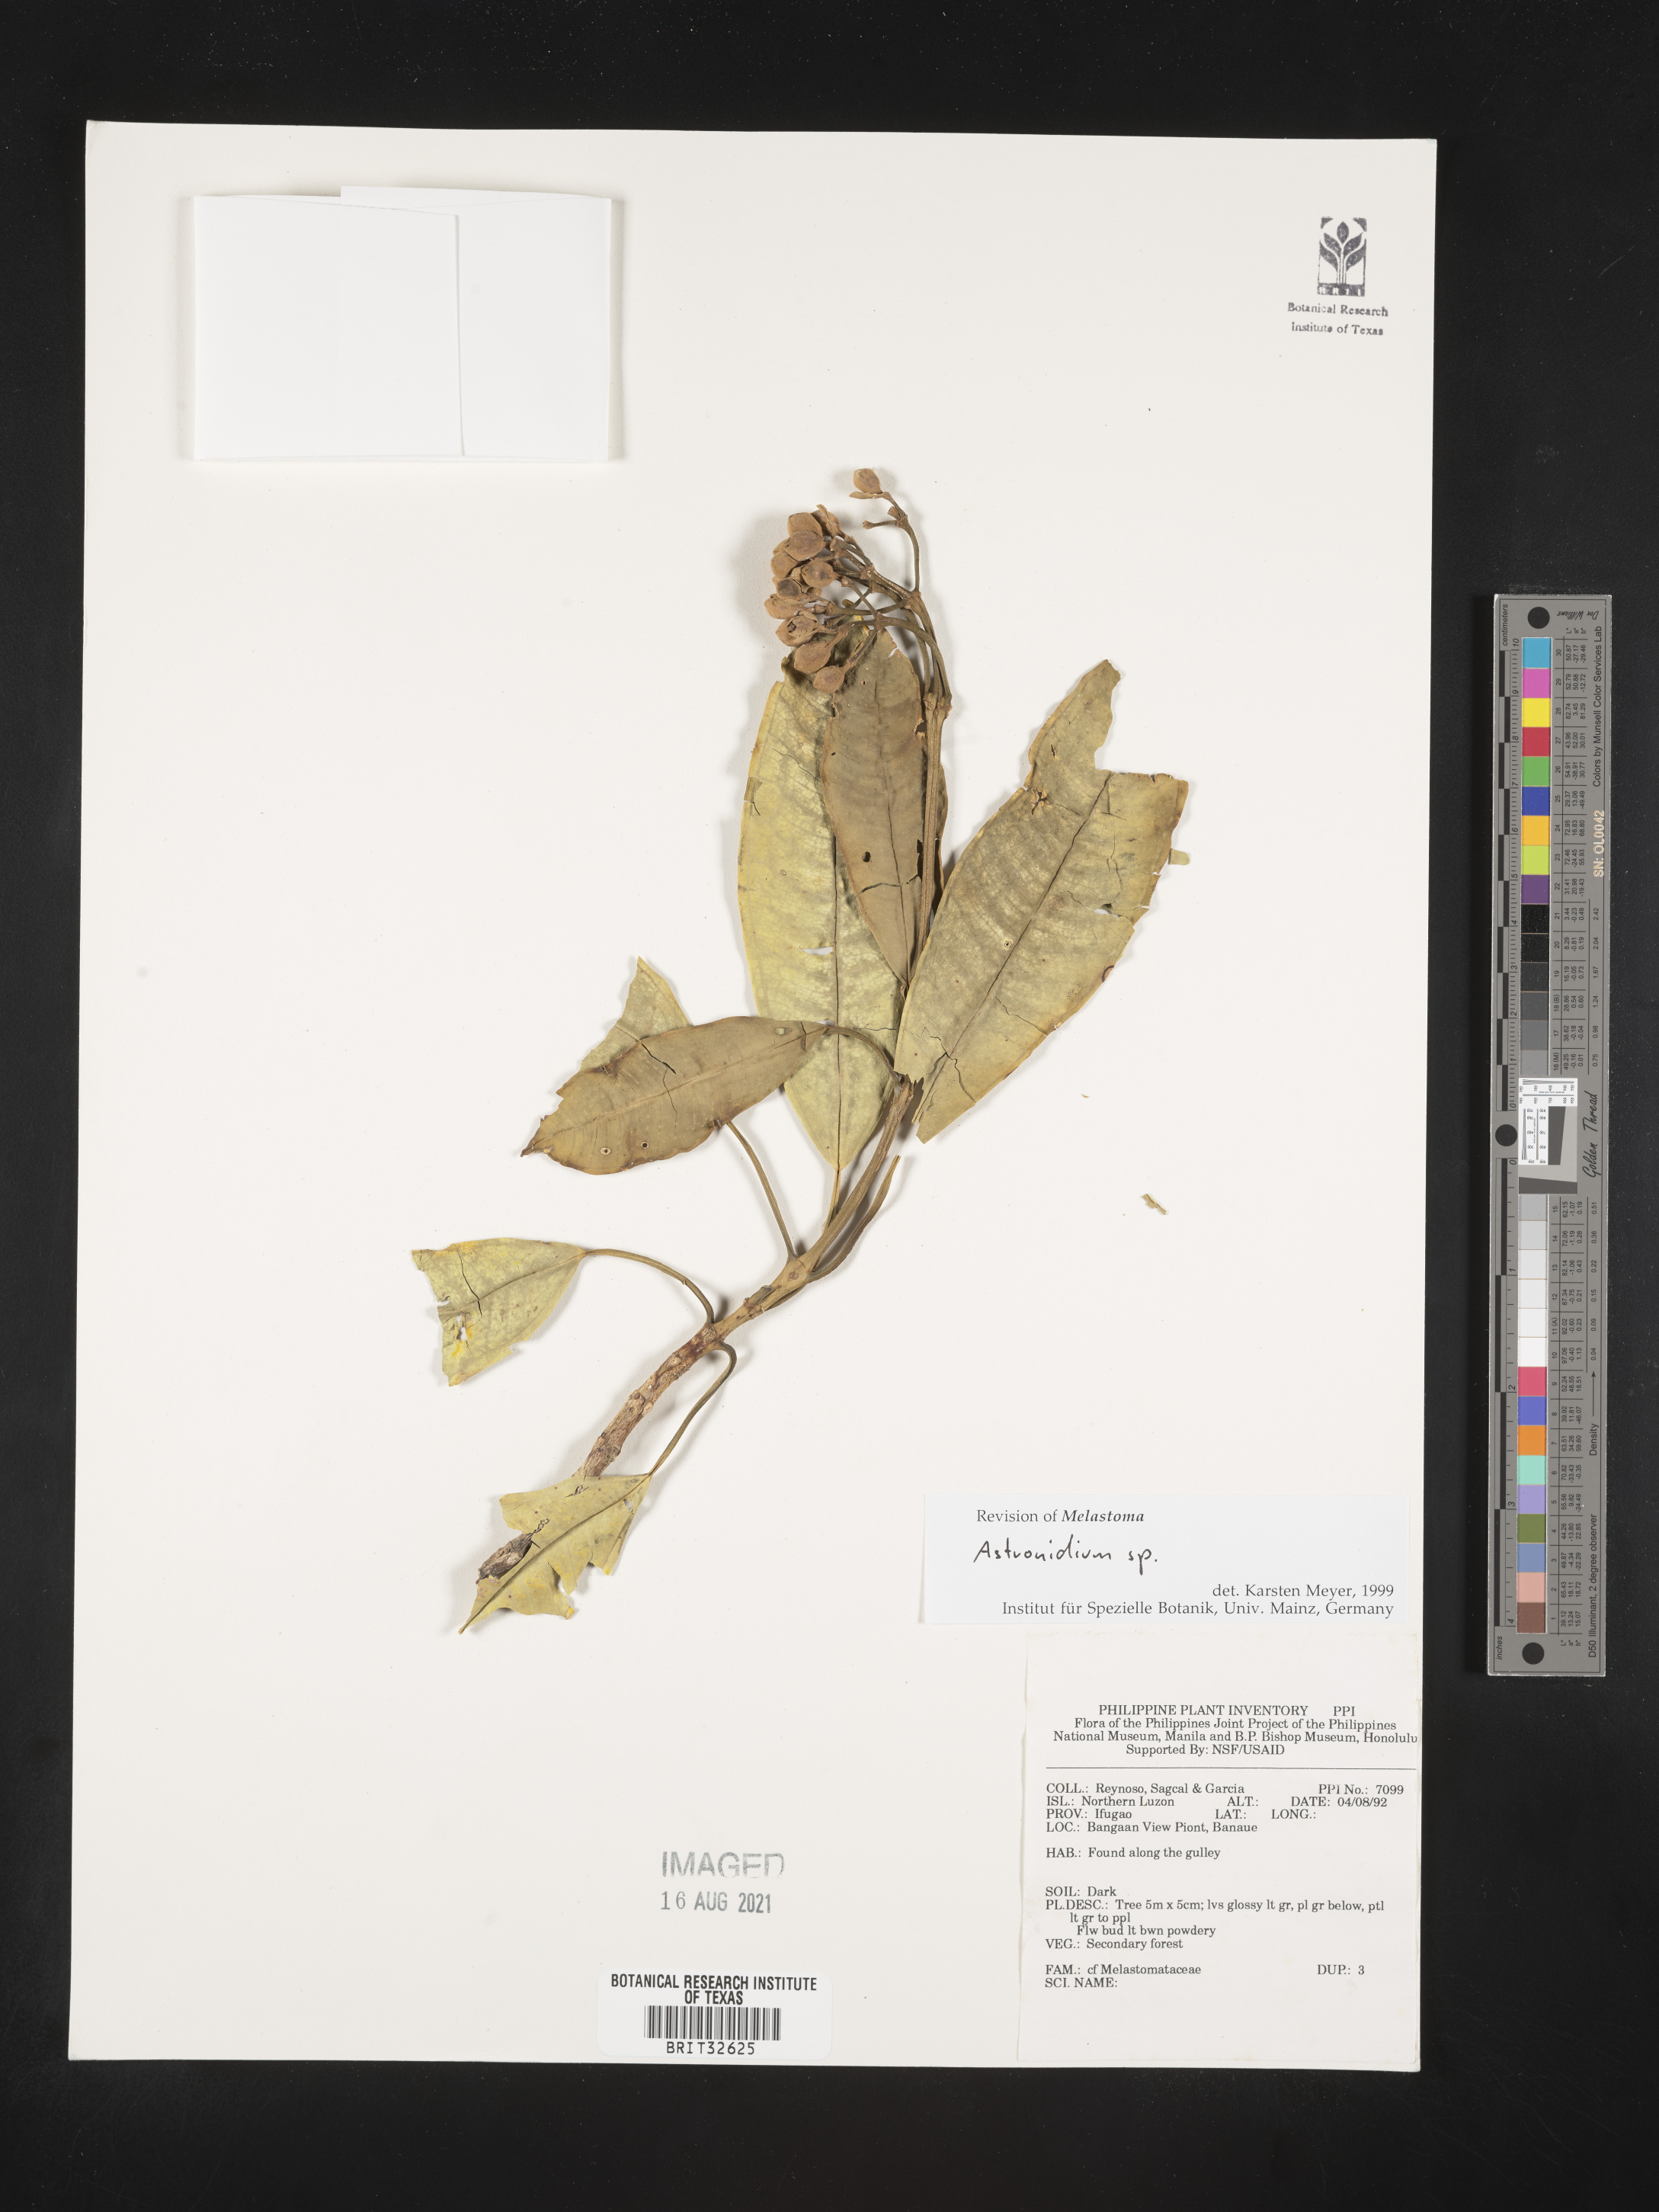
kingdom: Plantae
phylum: Tracheophyta
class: Magnoliopsida
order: Myrtales
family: Melastomataceae
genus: Astronidium
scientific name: Astronidium
